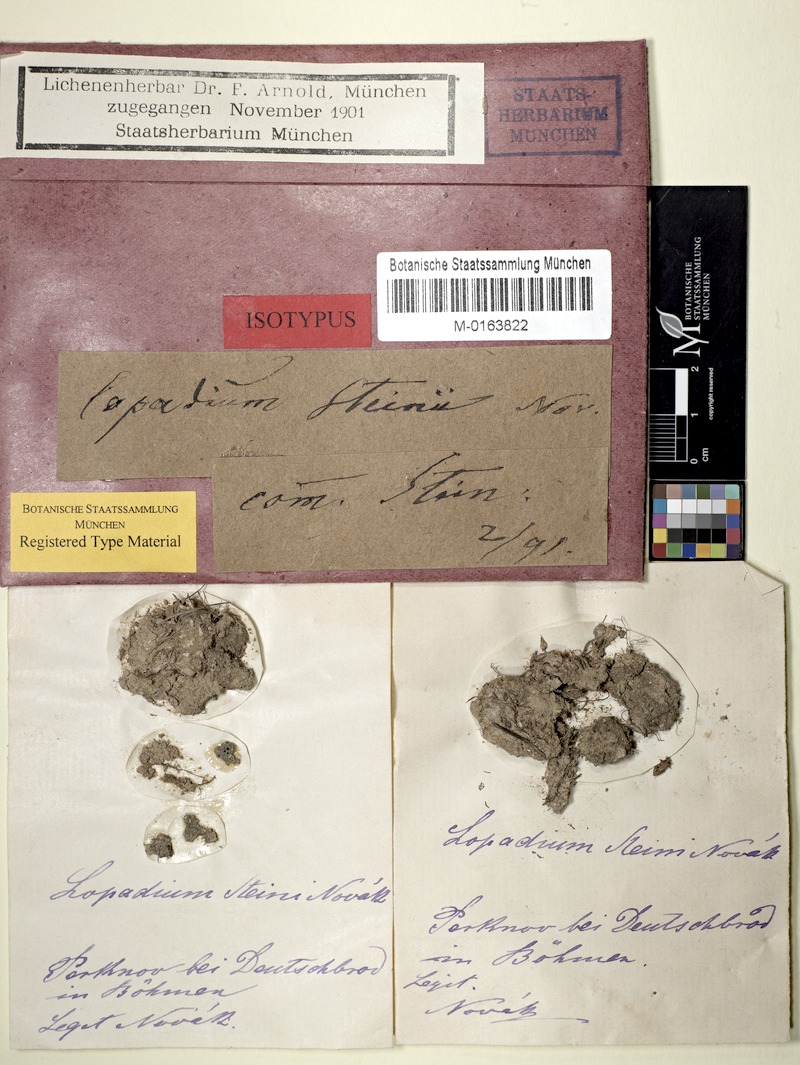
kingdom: Fungi
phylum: Ascomycota
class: Lecanoromycetes
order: Ostropales
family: Gomphillaceae
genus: Diploschistella
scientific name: Diploschistella athalloides
